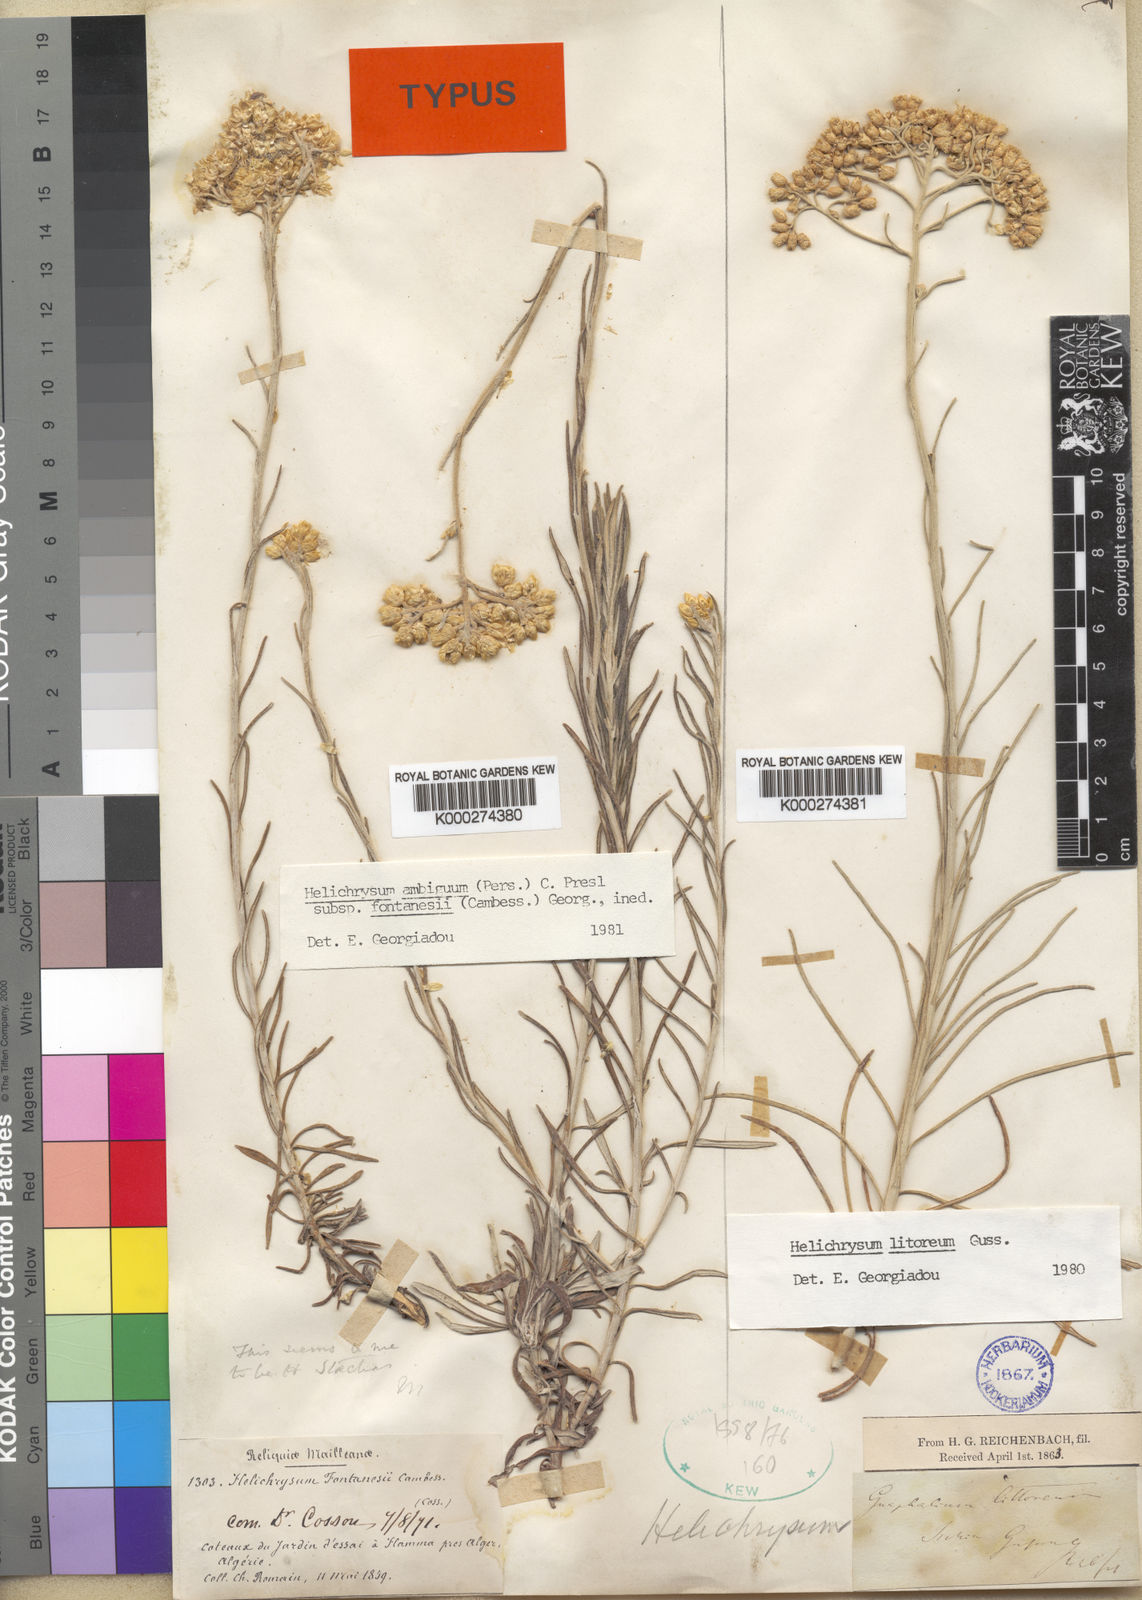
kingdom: Plantae
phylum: Tracheophyta
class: Magnoliopsida
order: Asterales
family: Asteraceae
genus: Helichrysum
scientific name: Helichrysum litoreum
